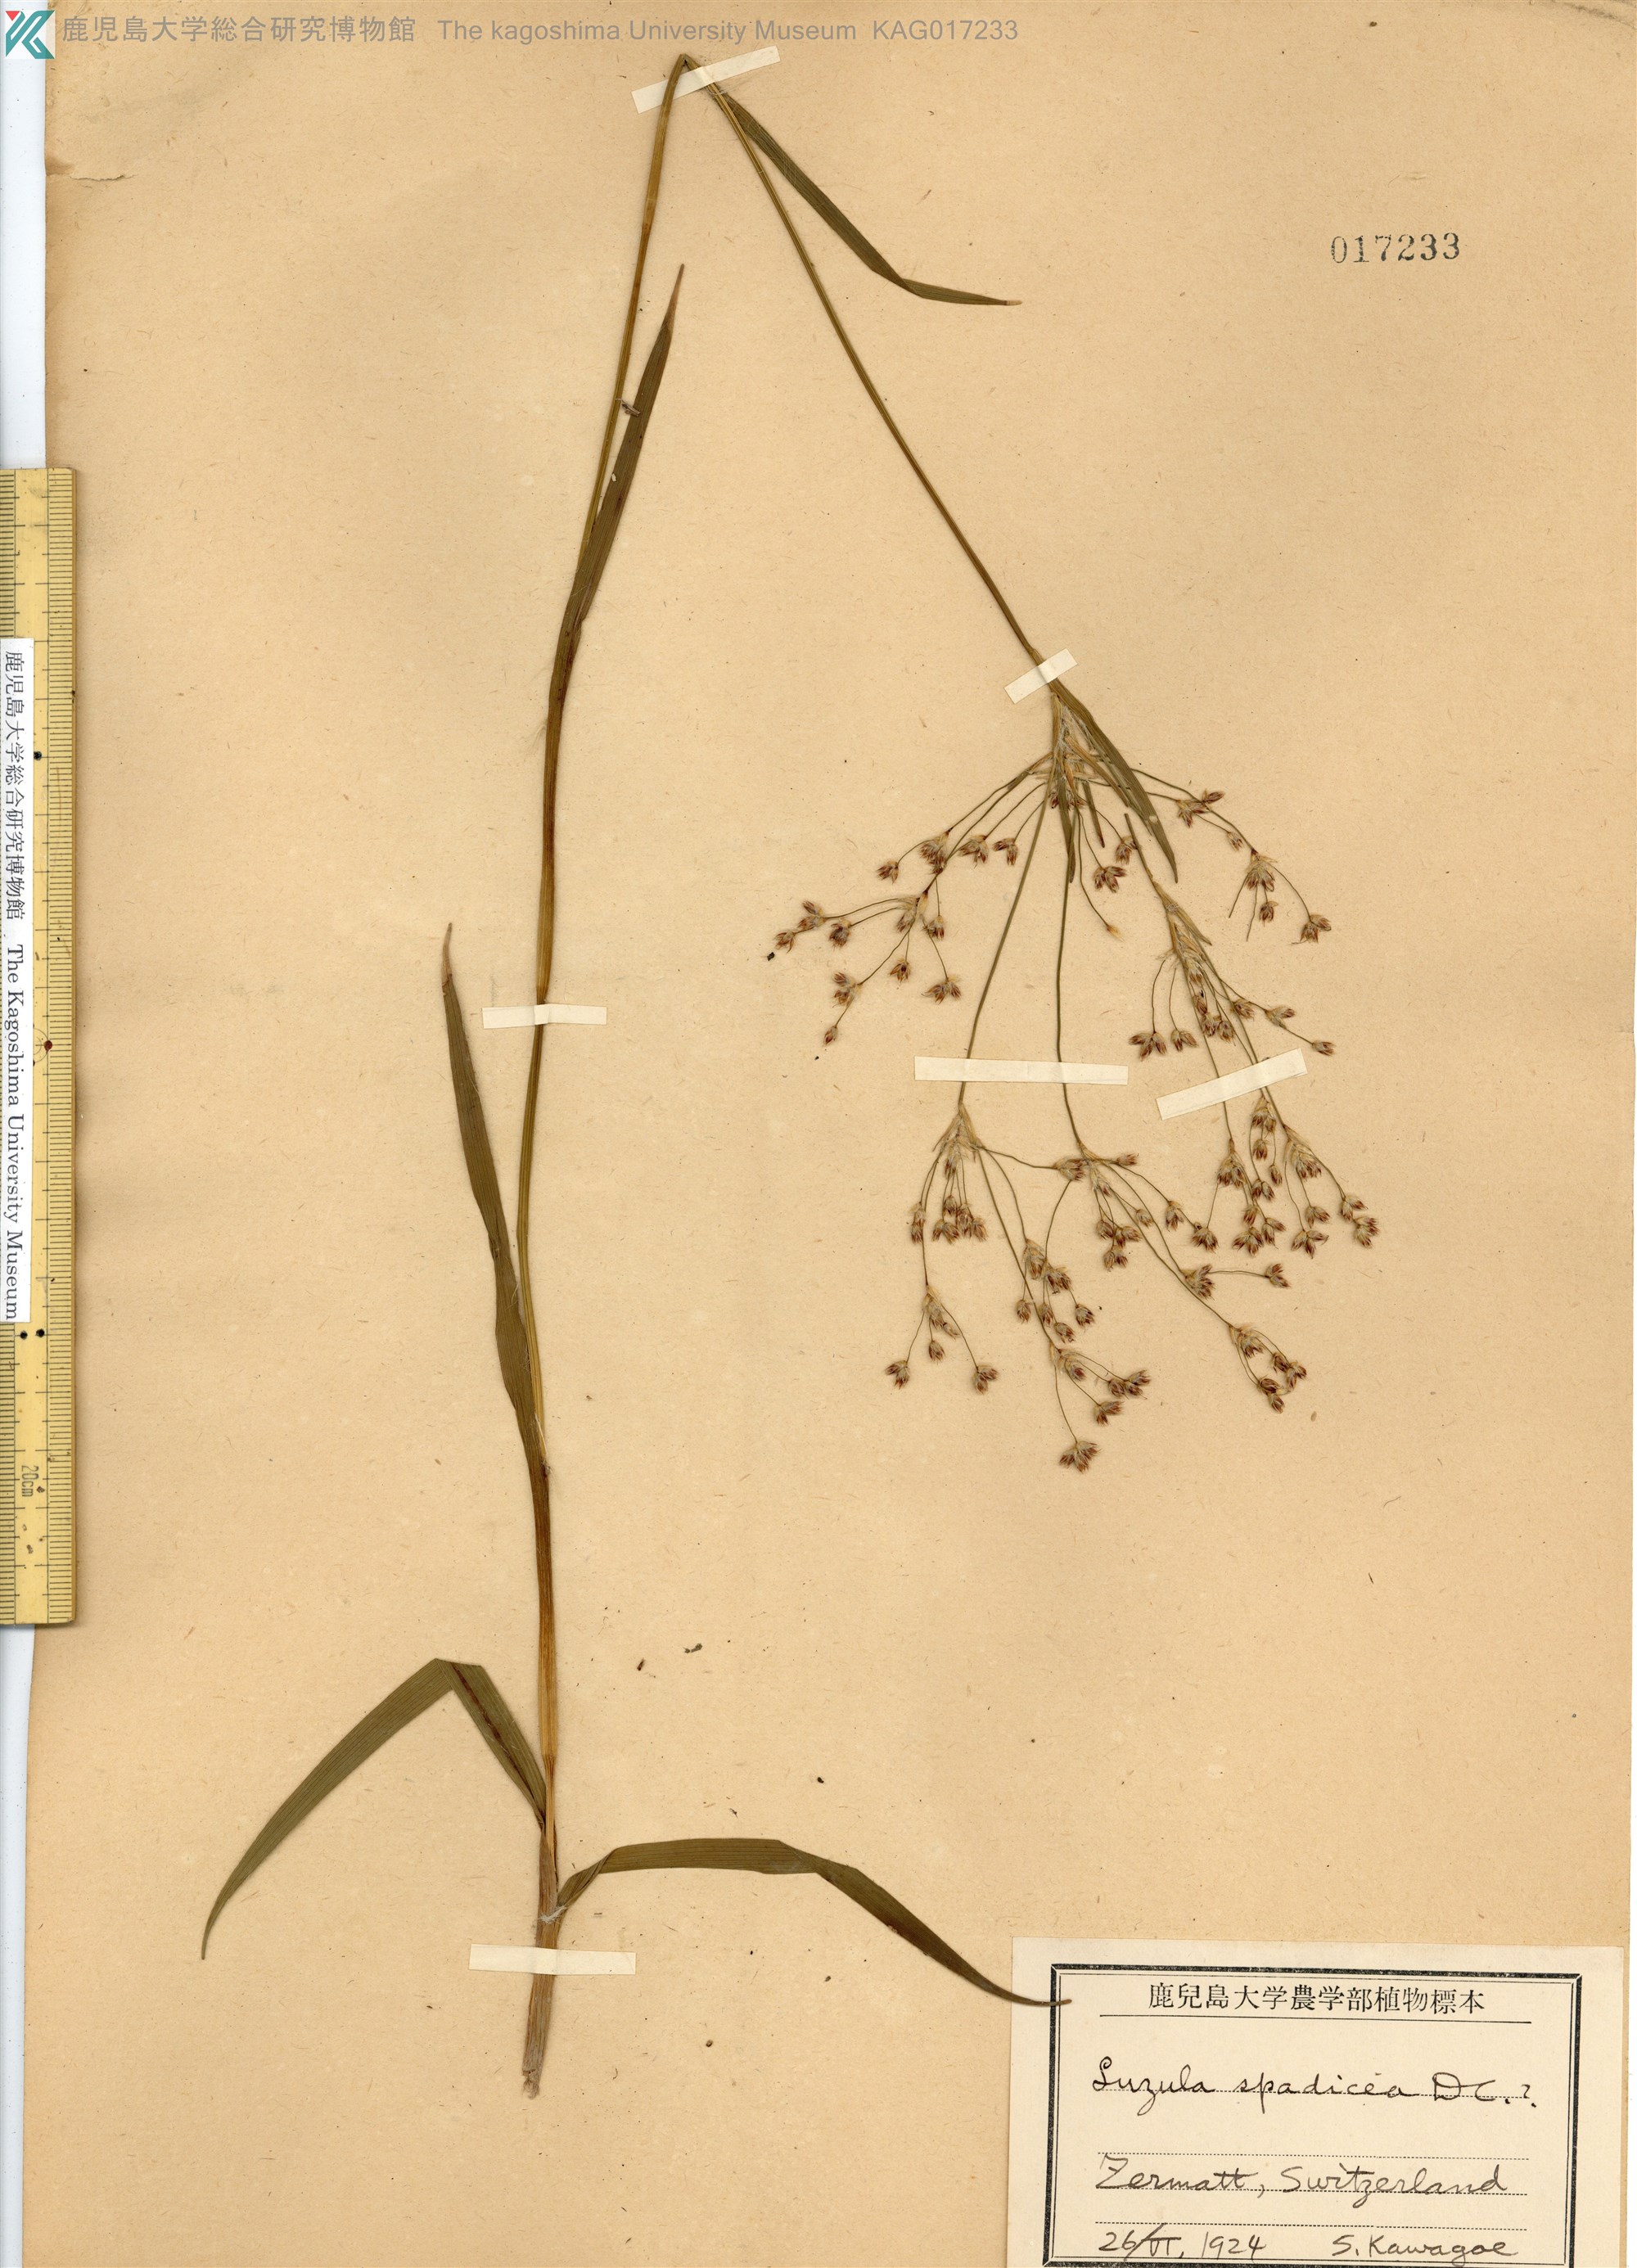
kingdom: Plantae
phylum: Tracheophyta
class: Liliopsida
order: Poales
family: Juncaceae
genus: Luzula
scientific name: Luzula alpinopilosa
